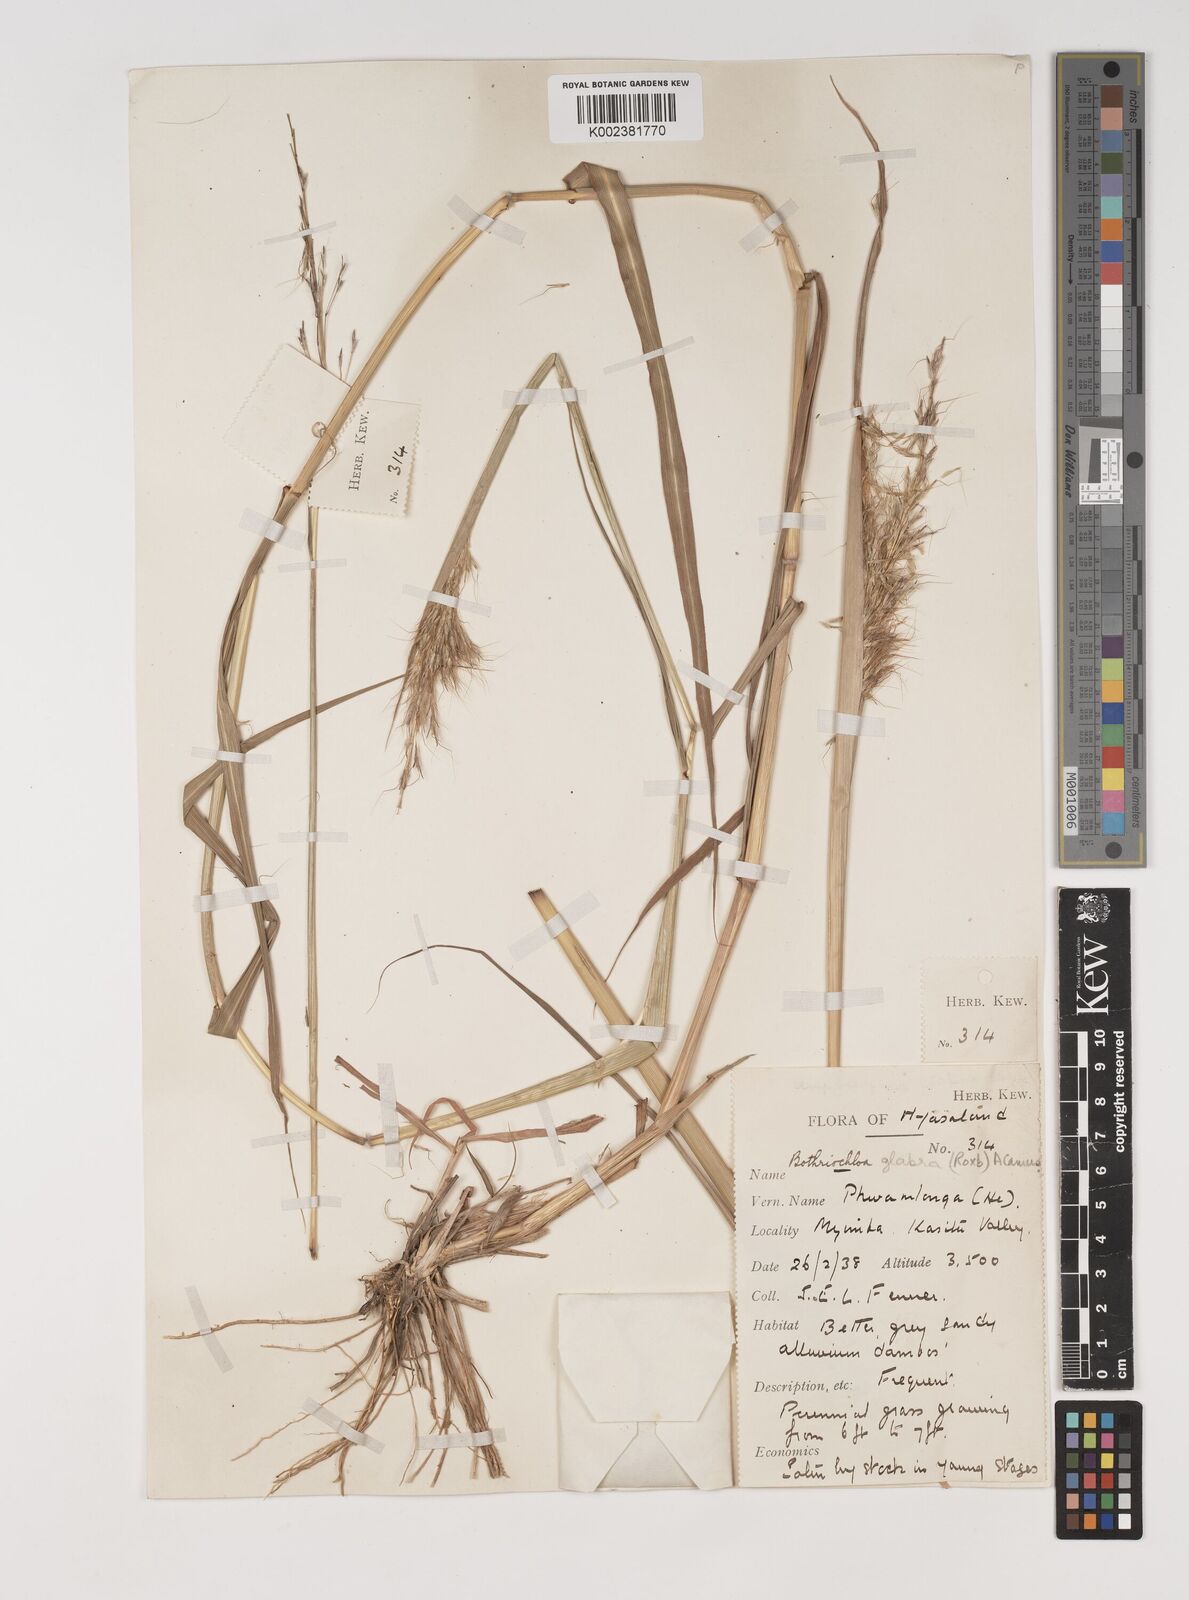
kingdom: Plantae
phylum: Tracheophyta
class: Liliopsida
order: Poales
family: Poaceae
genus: Bothriochloa
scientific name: Bothriochloa bladhii
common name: Caucasian bluestem
